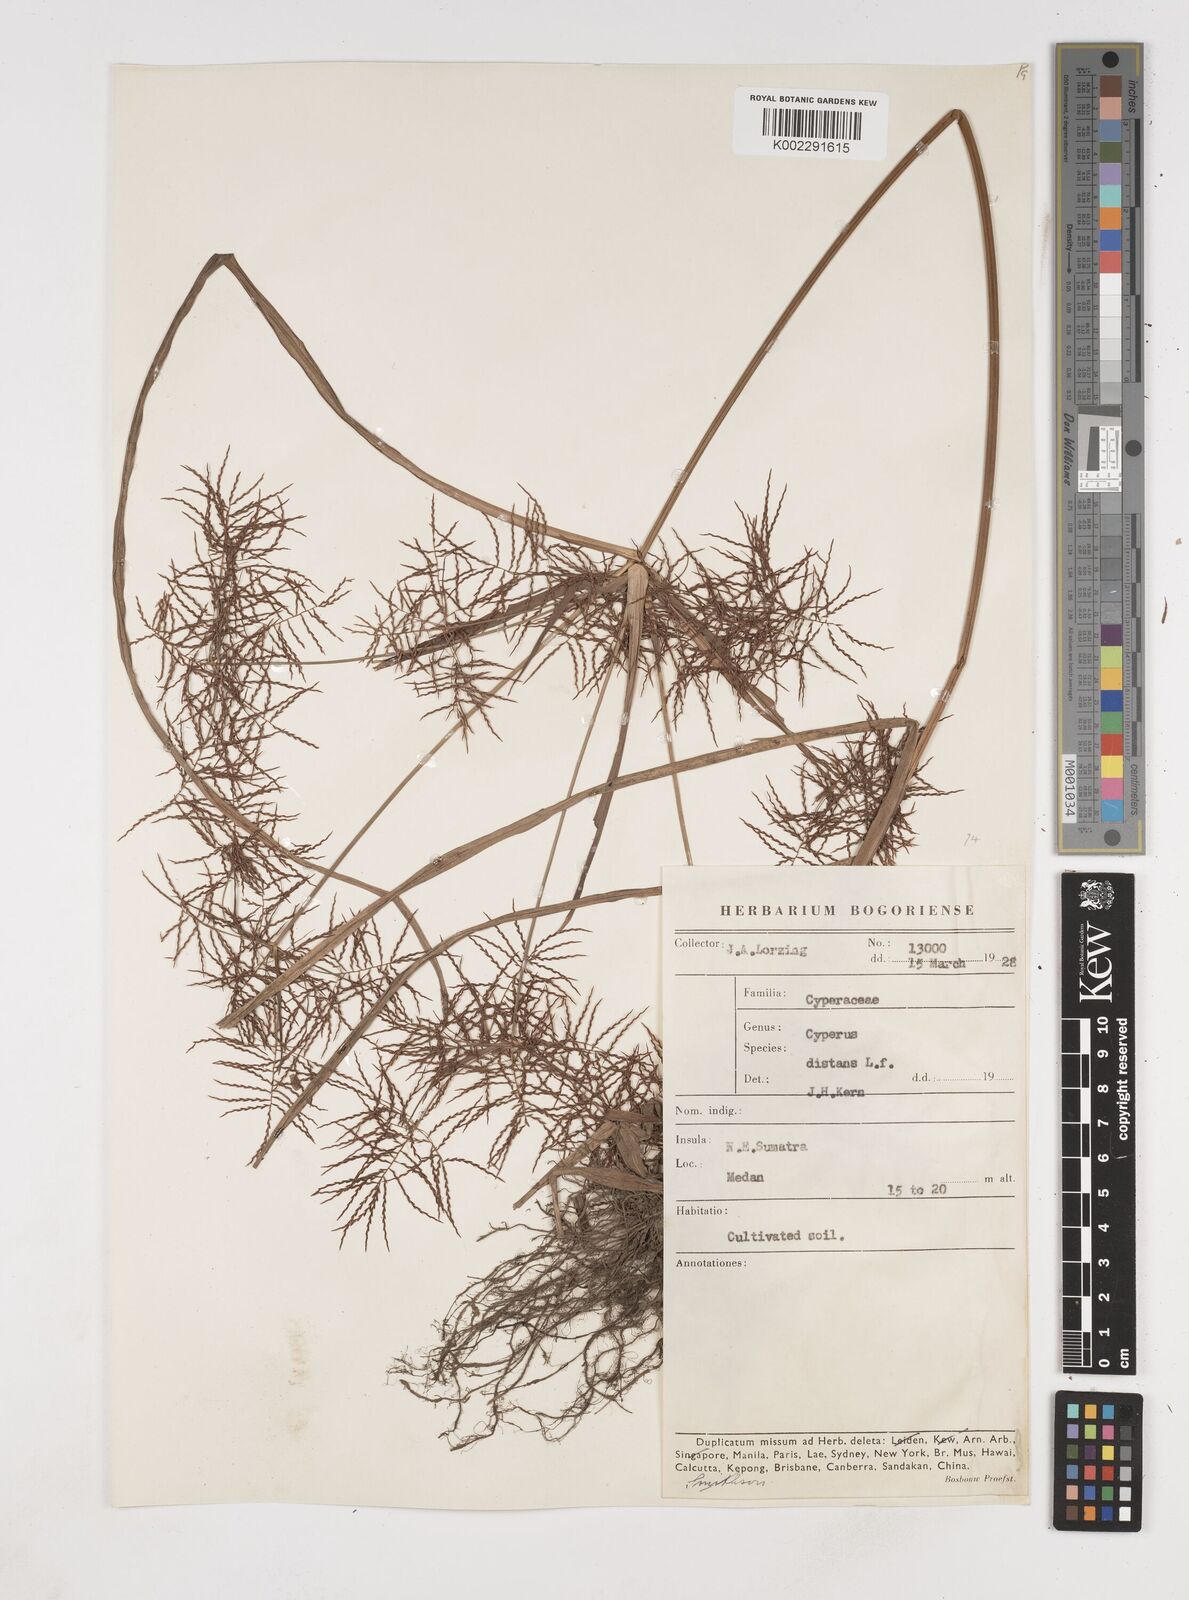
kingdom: Plantae
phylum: Tracheophyta
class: Liliopsida
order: Poales
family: Cyperaceae
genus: Cyperus
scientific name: Cyperus distans
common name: Slender cyperus
